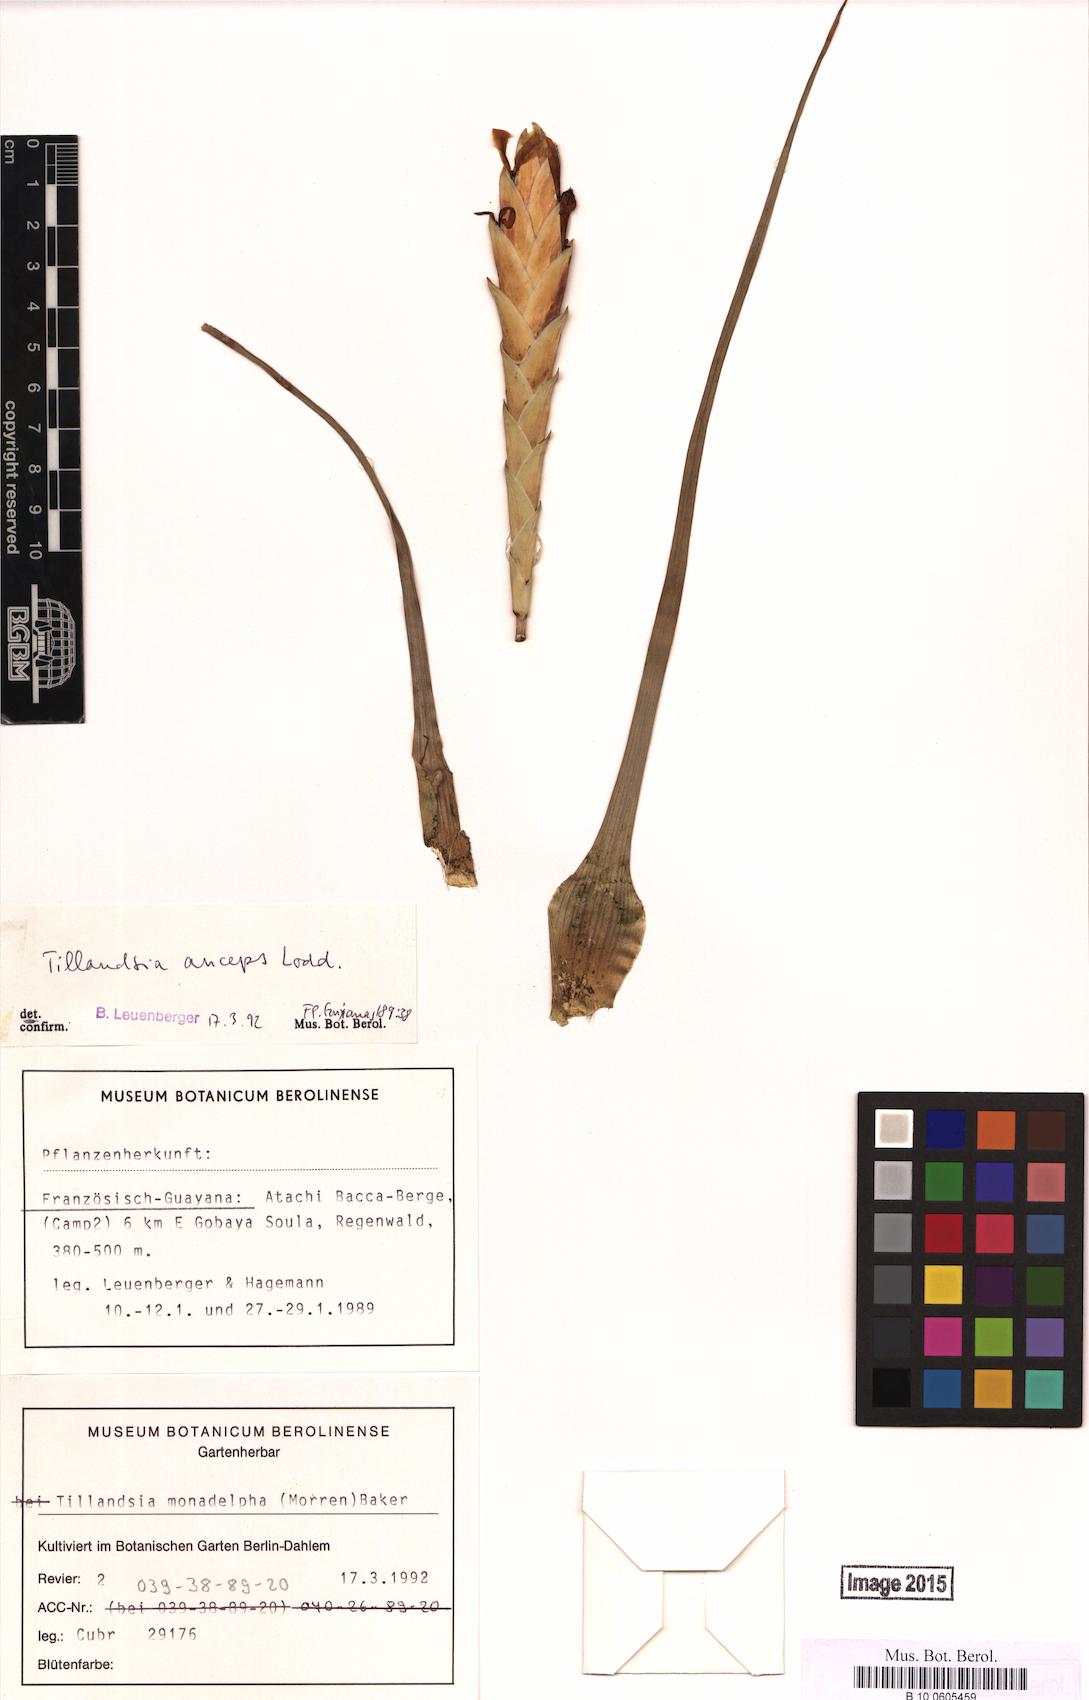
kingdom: Plantae
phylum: Tracheophyta
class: Liliopsida
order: Poales
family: Bromeliaceae
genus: Wallisia
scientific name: Wallisia anceps
